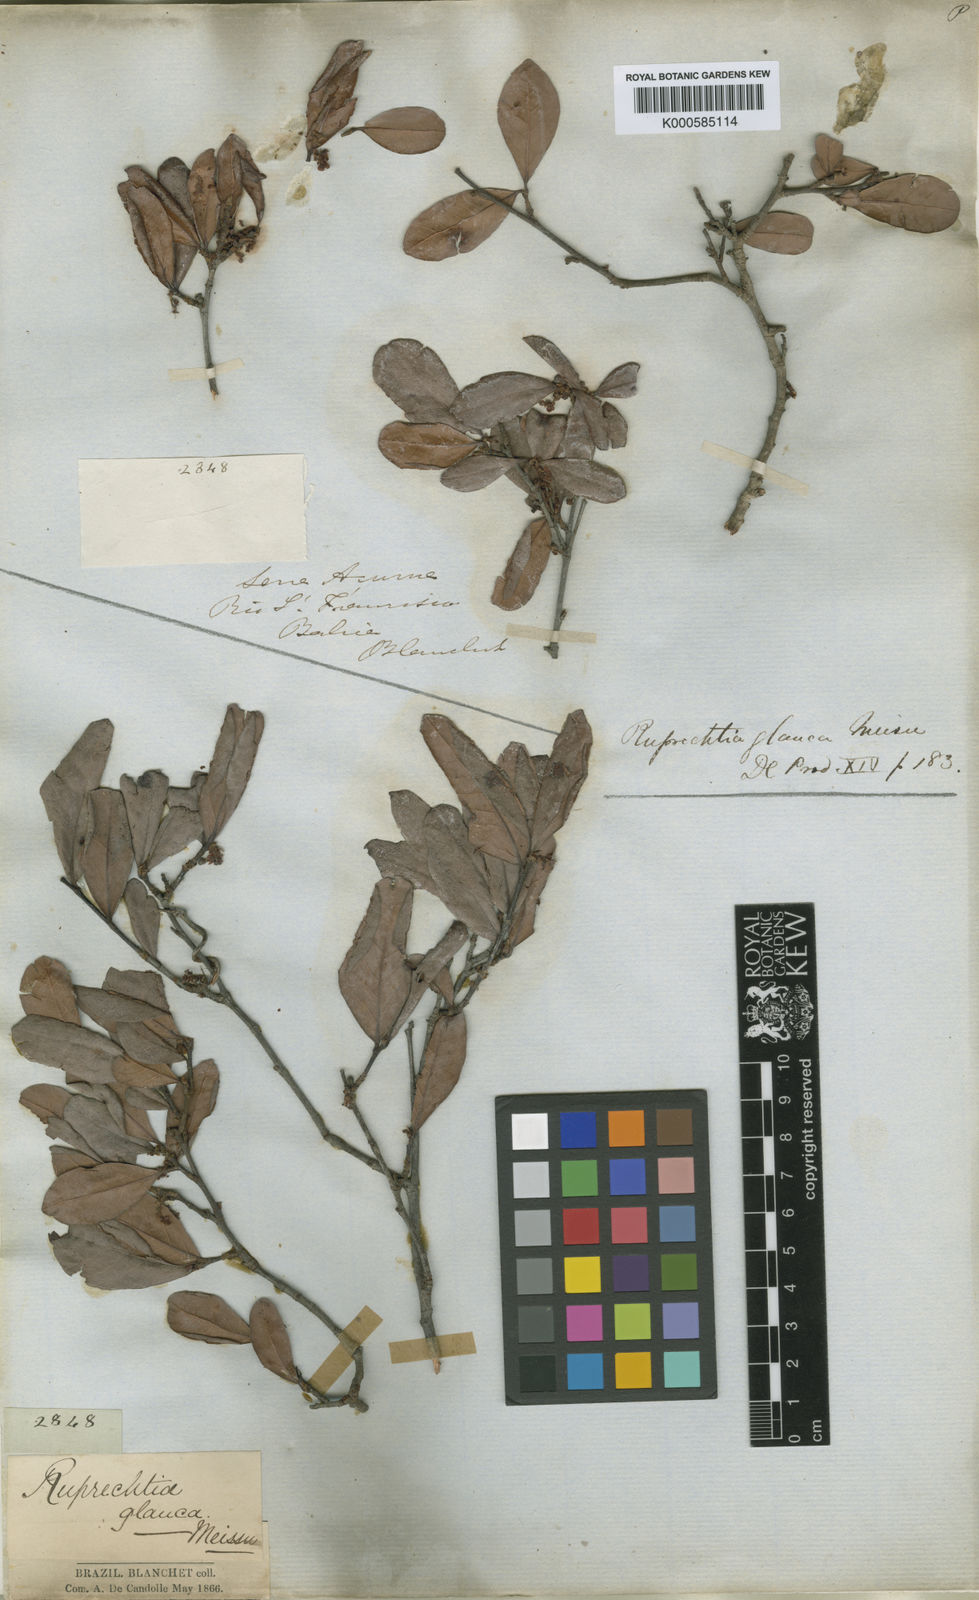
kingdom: Plantae
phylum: Tracheophyta
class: Magnoliopsida
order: Caryophyllales
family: Polygonaceae
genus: Ruprechtia
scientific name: Ruprechtia laxiflora
